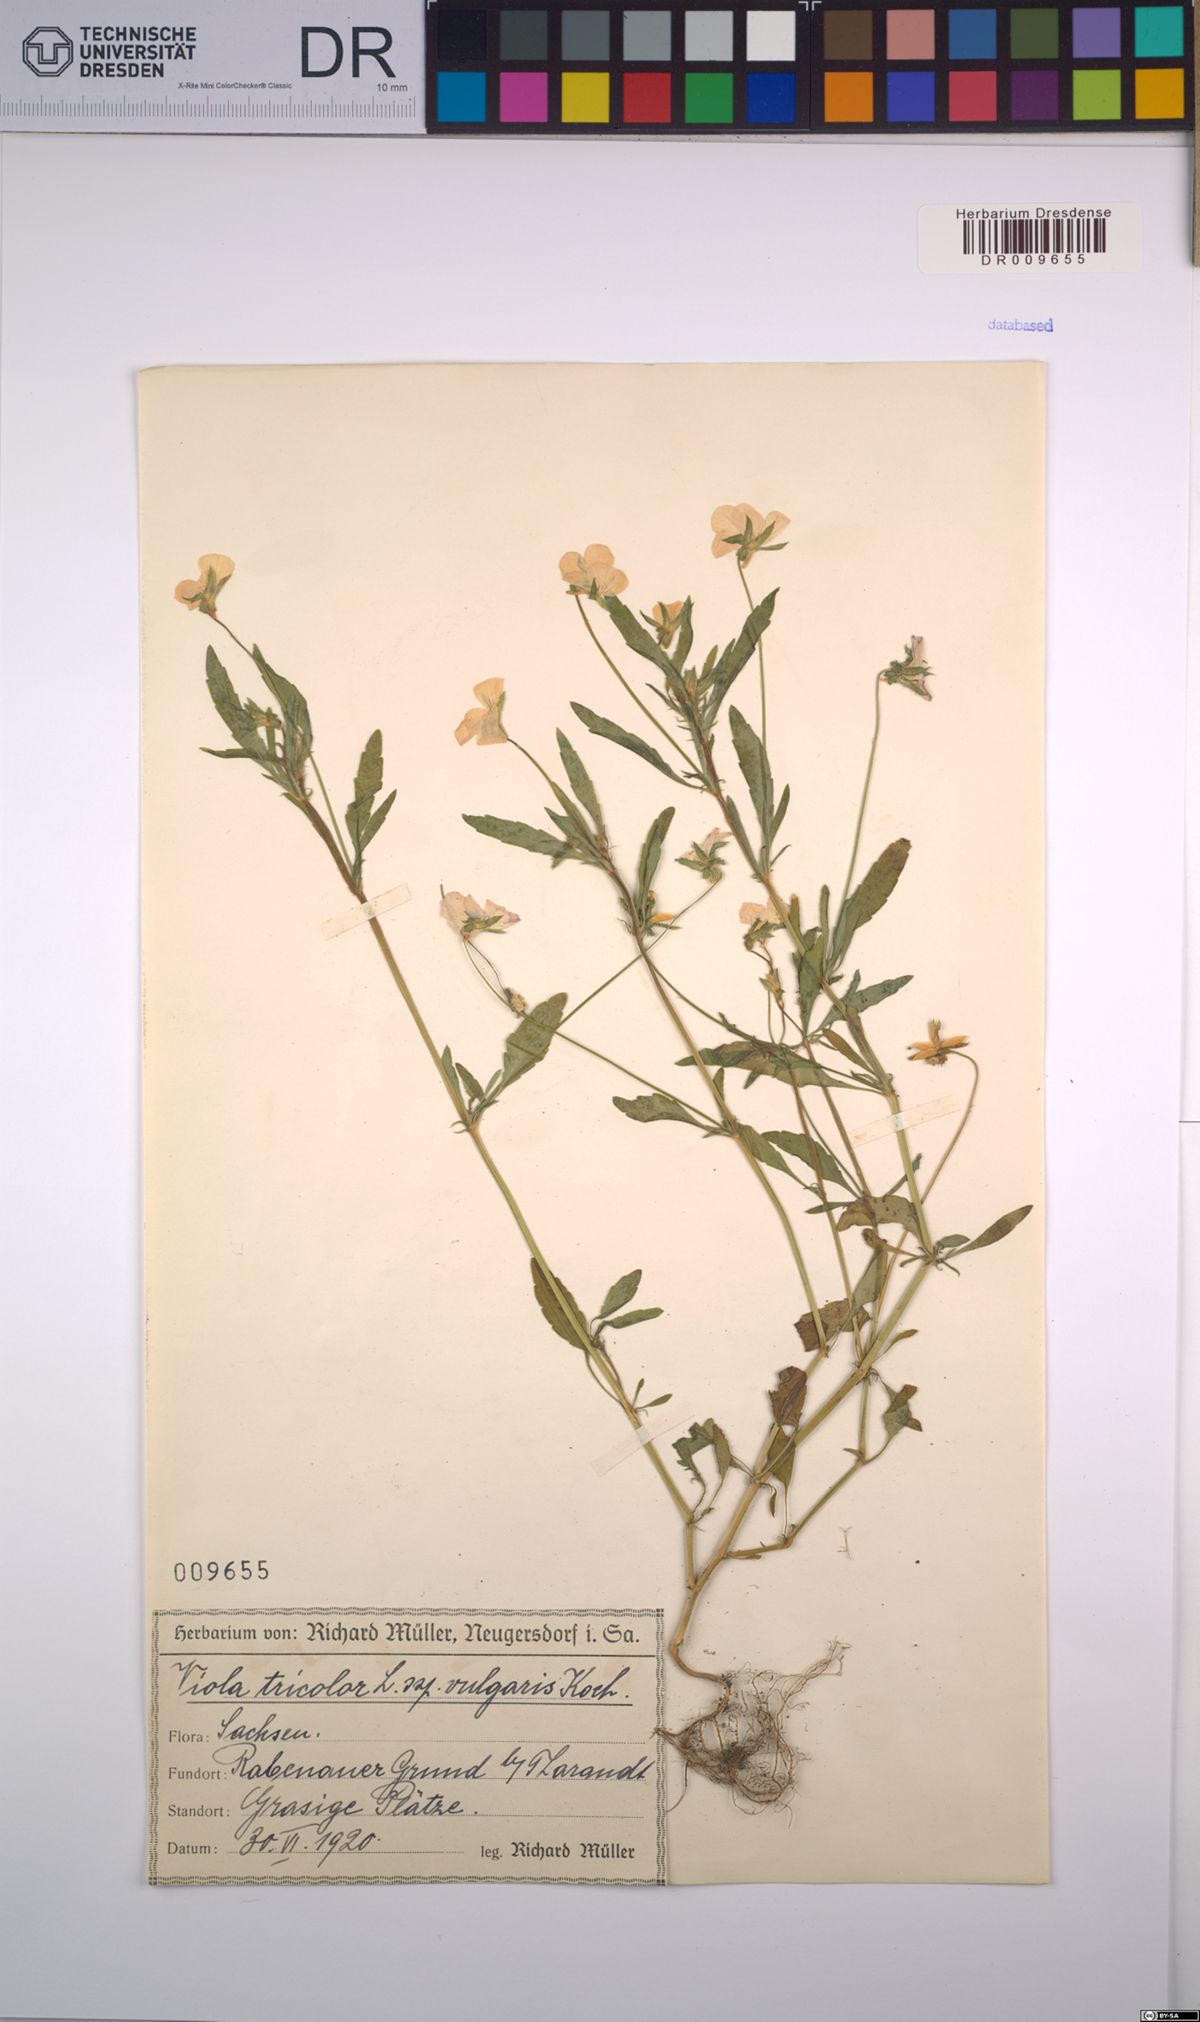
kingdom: Plantae
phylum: Tracheophyta
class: Magnoliopsida
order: Malpighiales
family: Violaceae
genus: Viola
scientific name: Viola tricolor
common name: Pansy
